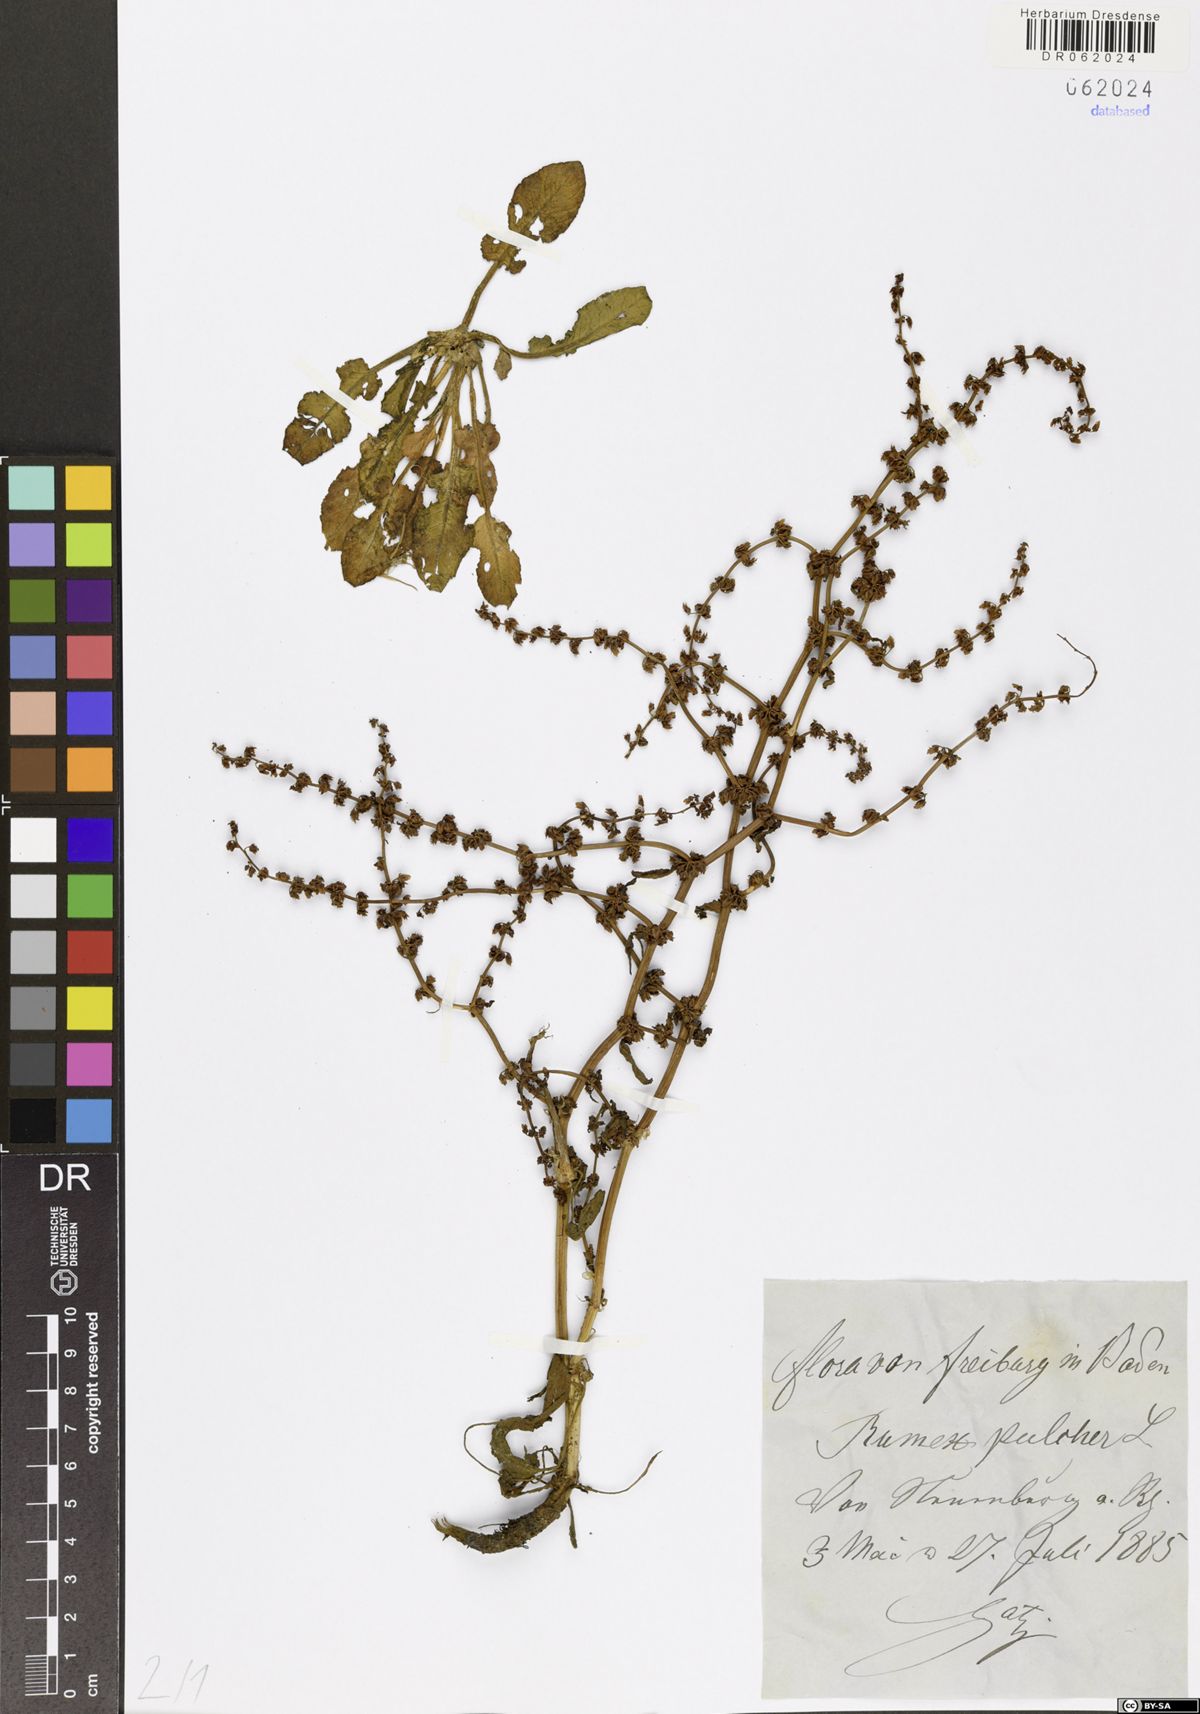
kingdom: Plantae
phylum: Tracheophyta
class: Magnoliopsida
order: Caryophyllales
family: Polygonaceae
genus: Rumex
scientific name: Rumex pulcher
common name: Fiddle dock
